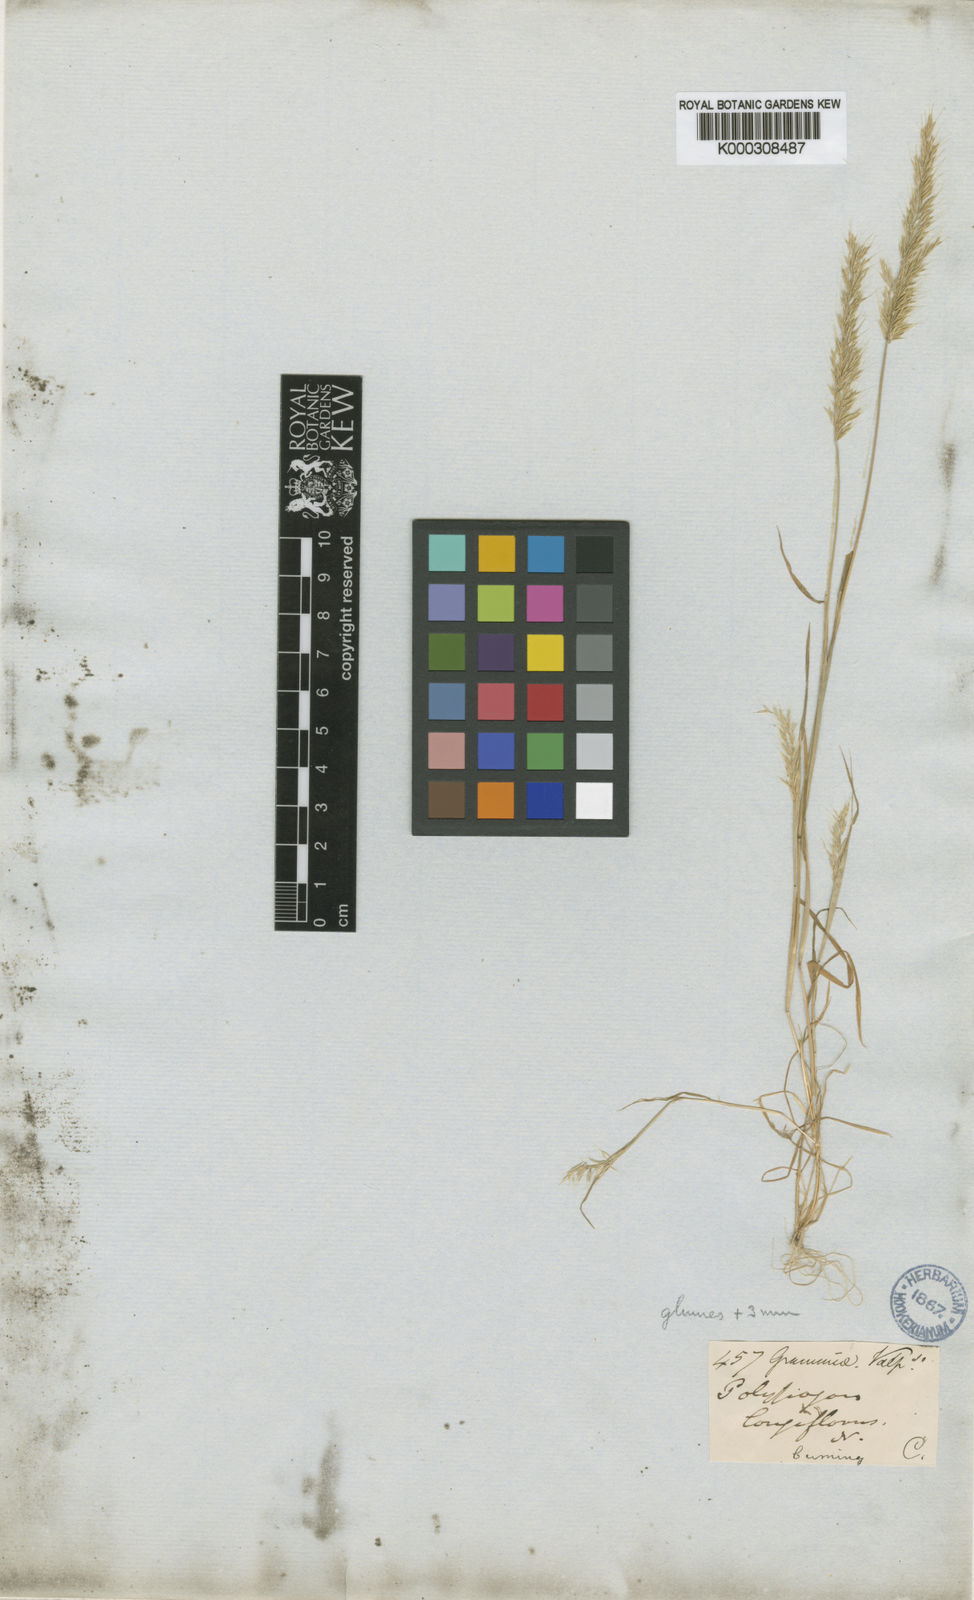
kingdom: Plantae
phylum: Tracheophyta
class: Liliopsida
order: Poales
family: Poaceae
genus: Polypogon
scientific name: Polypogon linearis
